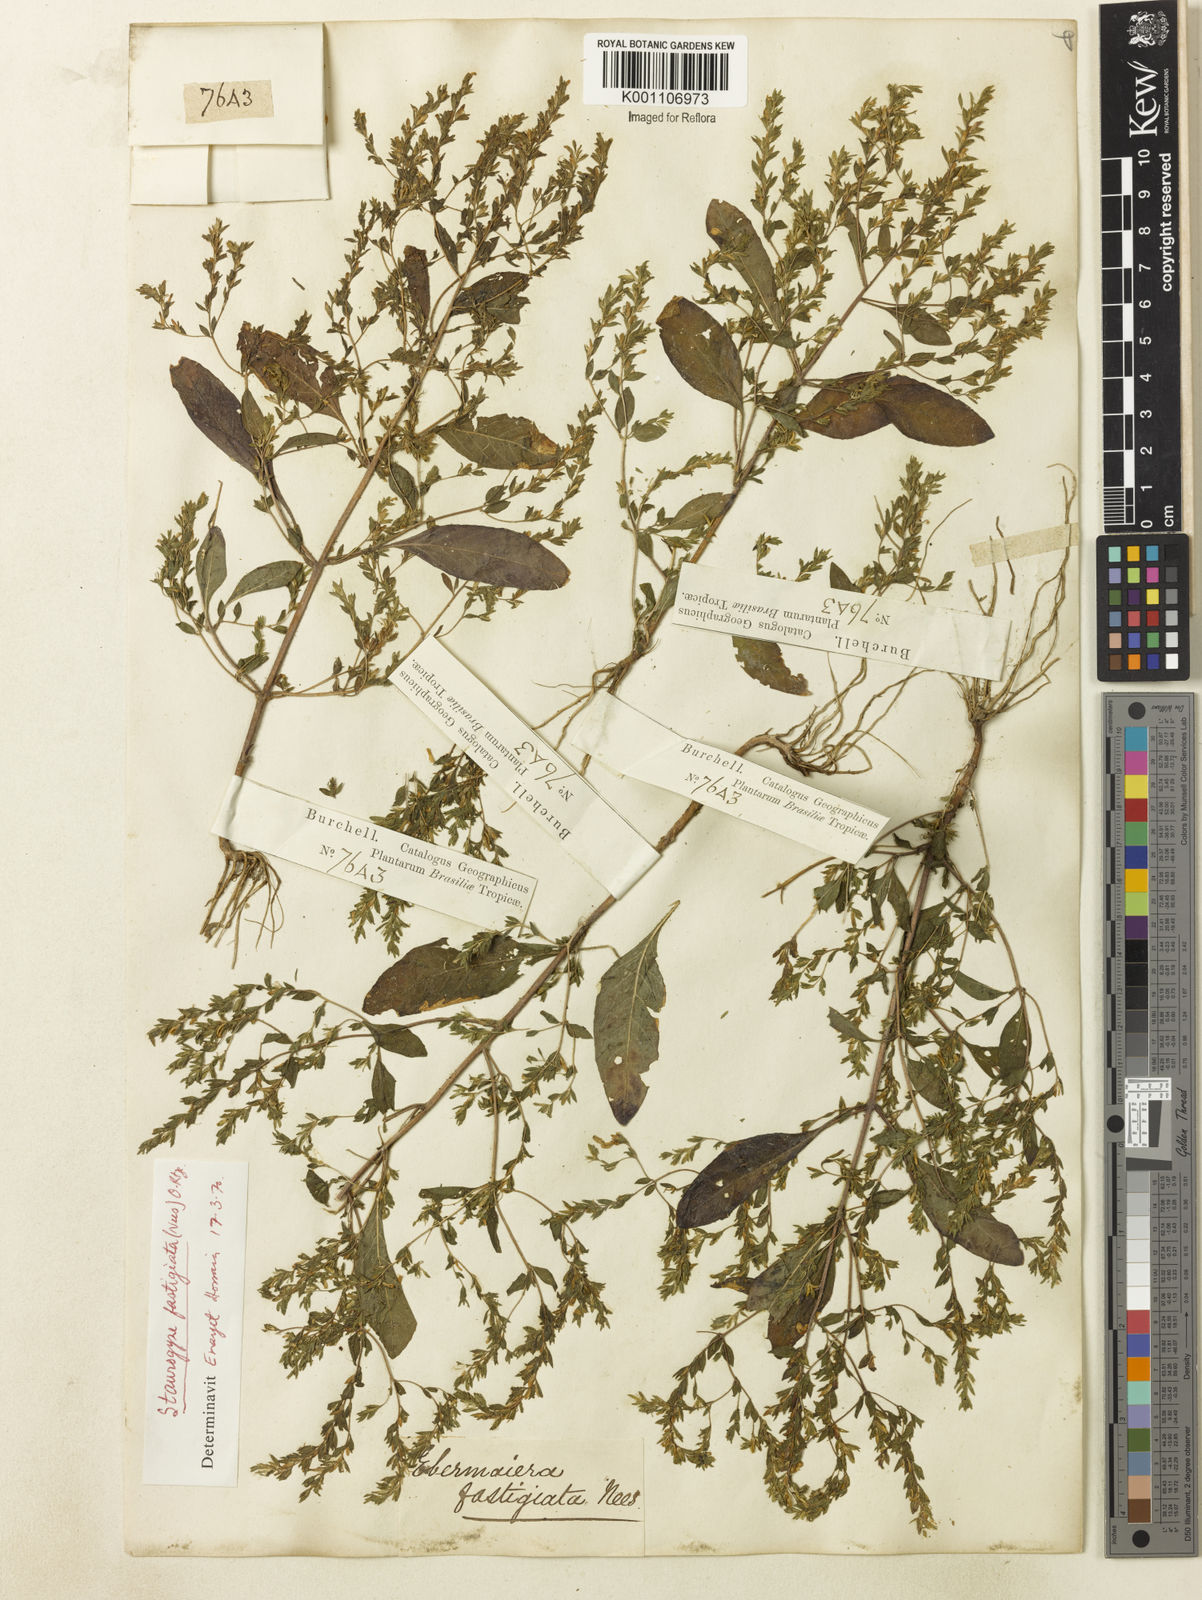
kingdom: Plantae
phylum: Tracheophyta
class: Magnoliopsida
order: Lamiales
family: Acanthaceae
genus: Staurogyne
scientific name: Staurogyne fastigiata
